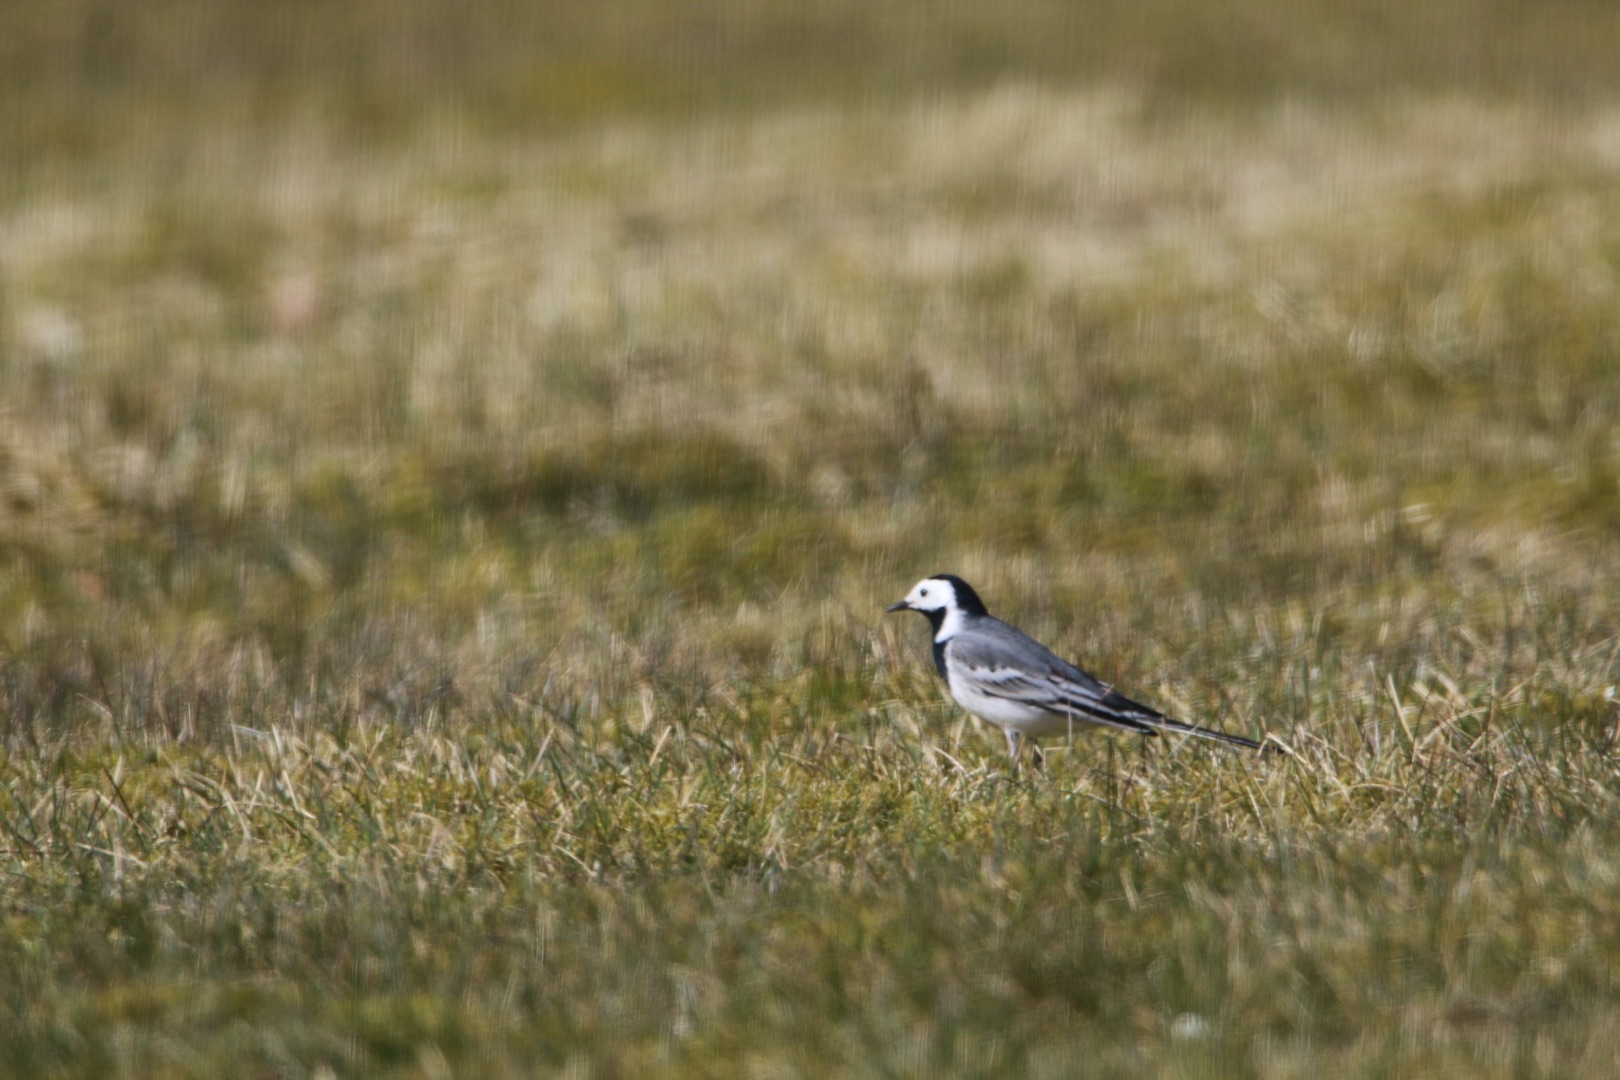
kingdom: Animalia
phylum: Chordata
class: Aves
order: Passeriformes
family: Motacillidae
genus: Motacilla
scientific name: Motacilla alba
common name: Hvid vipstjert
